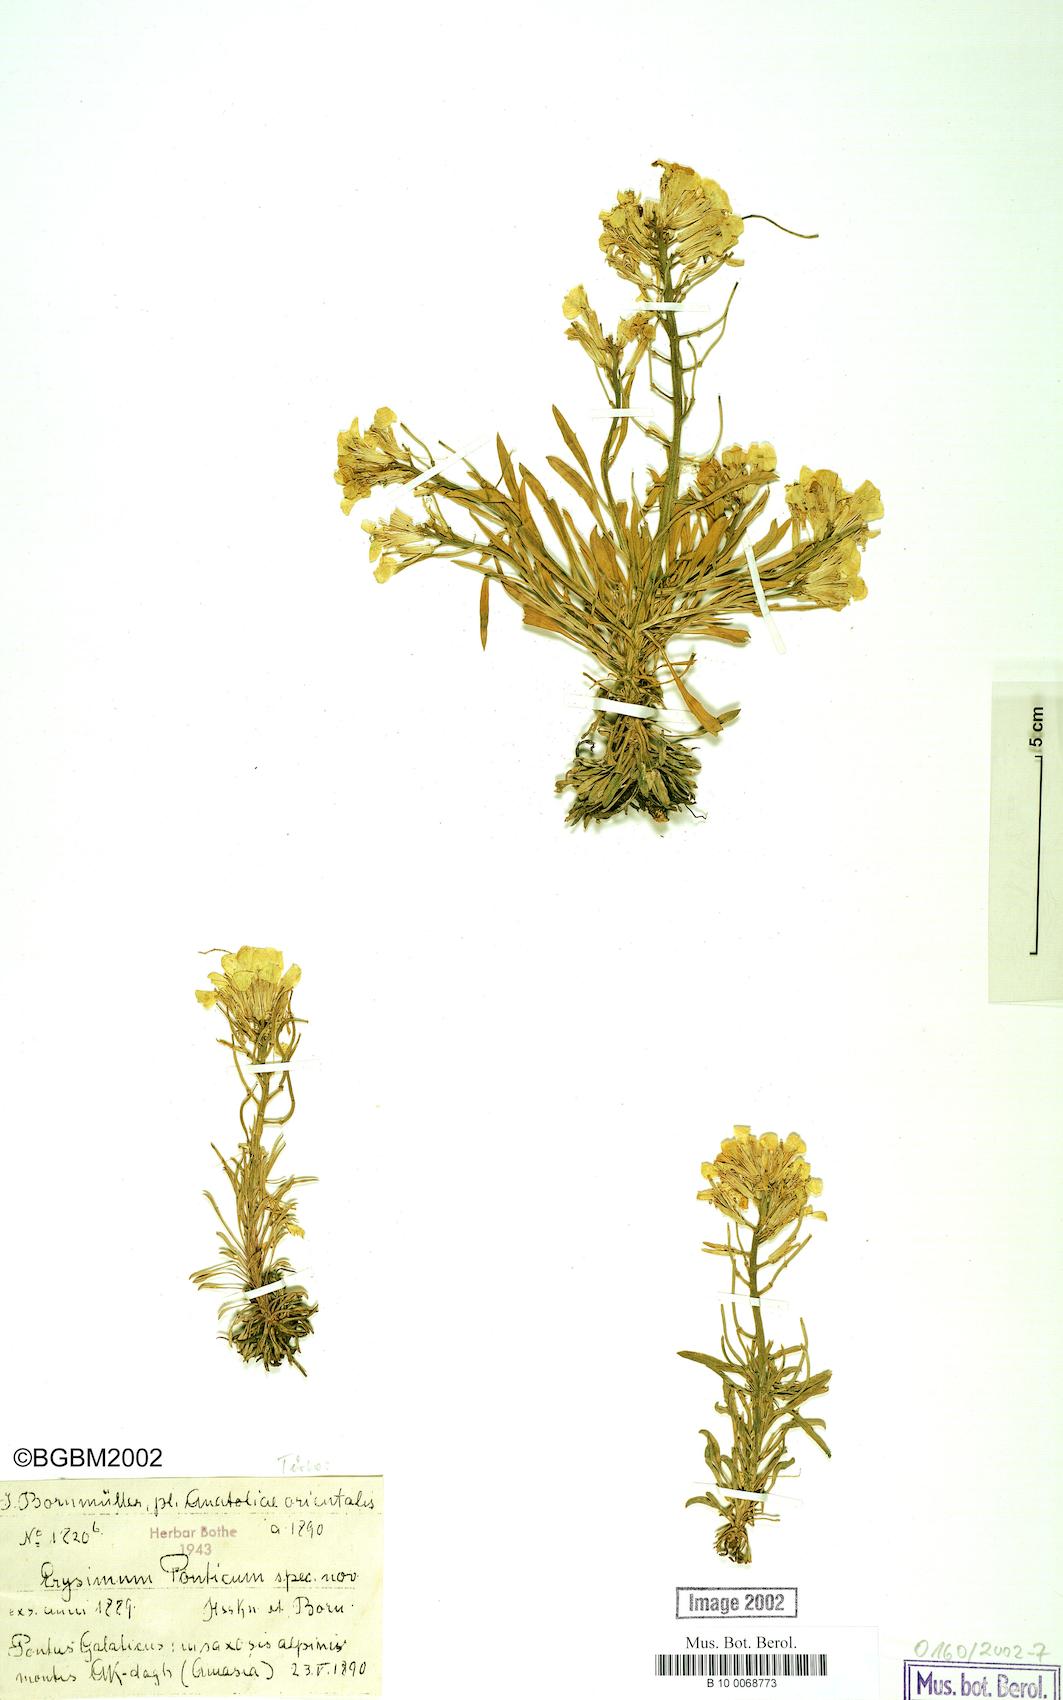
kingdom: Plantae
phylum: Tracheophyta
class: Magnoliopsida
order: Brassicales
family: Brassicaceae
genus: Erysimum
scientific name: Erysimum ponticum
